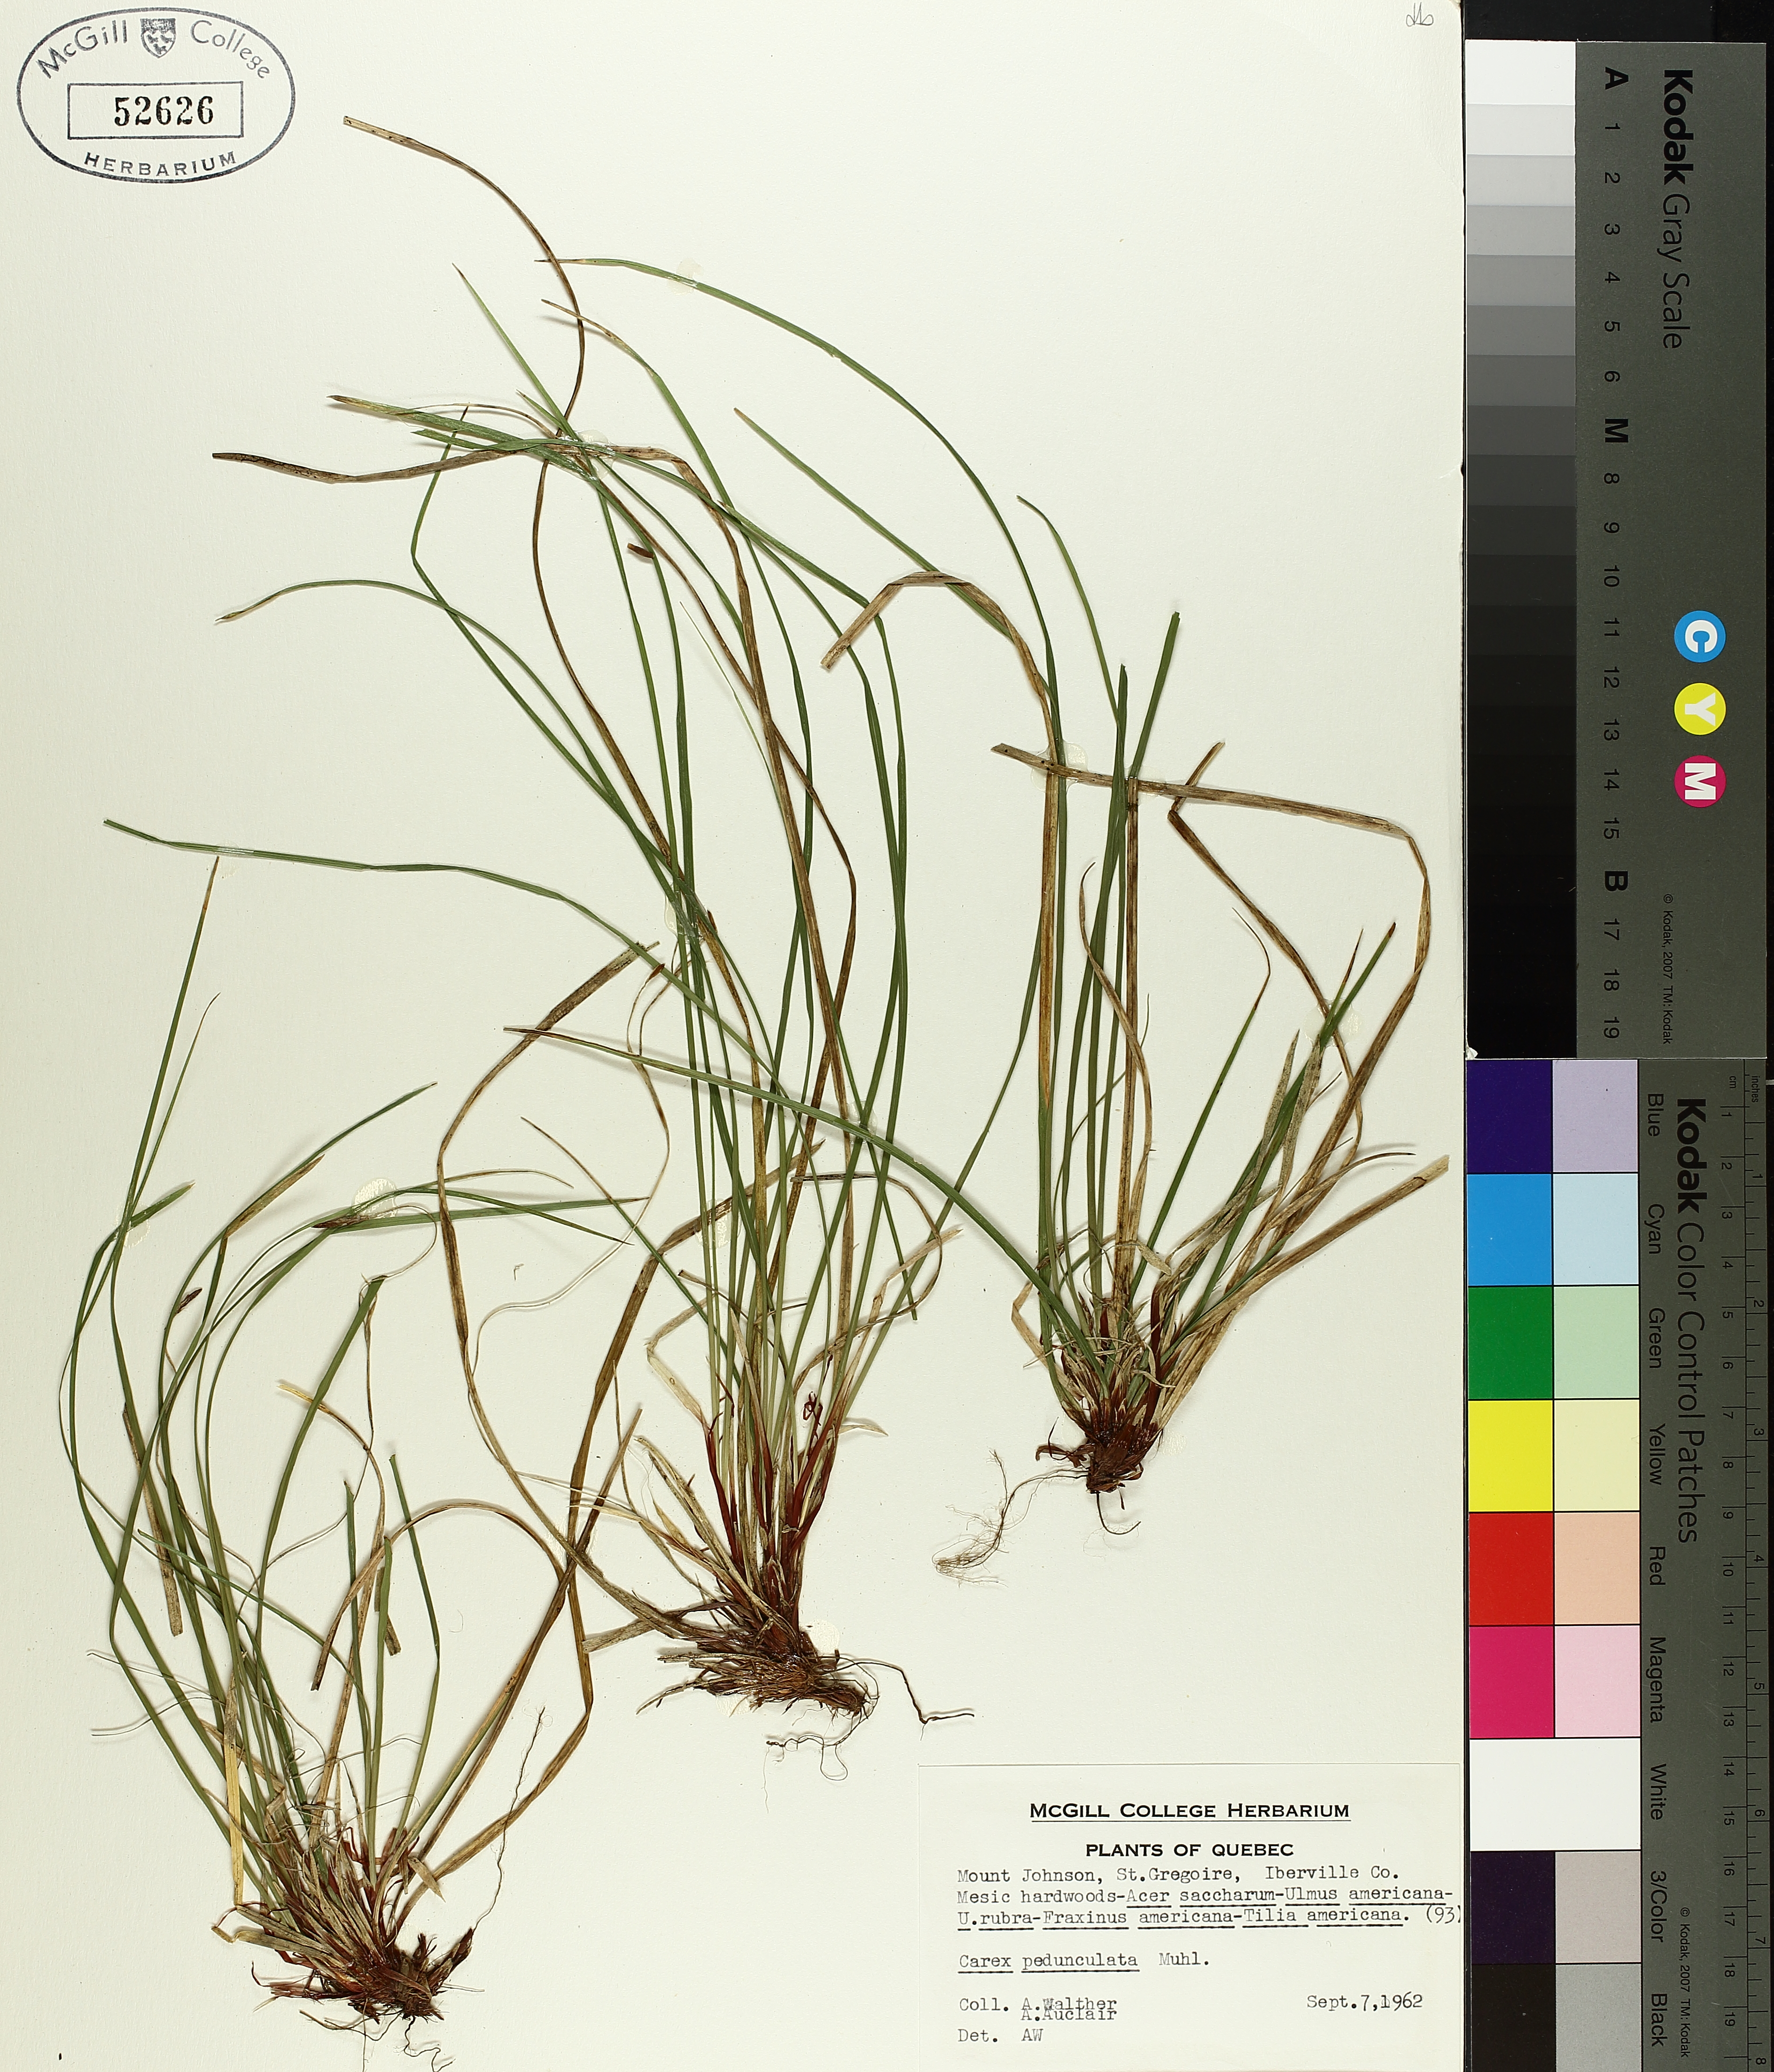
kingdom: Plantae
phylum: Tracheophyta
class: Liliopsida
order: Poales
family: Cyperaceae
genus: Carex
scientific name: Carex pedunculata
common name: Pedunculate sedge
